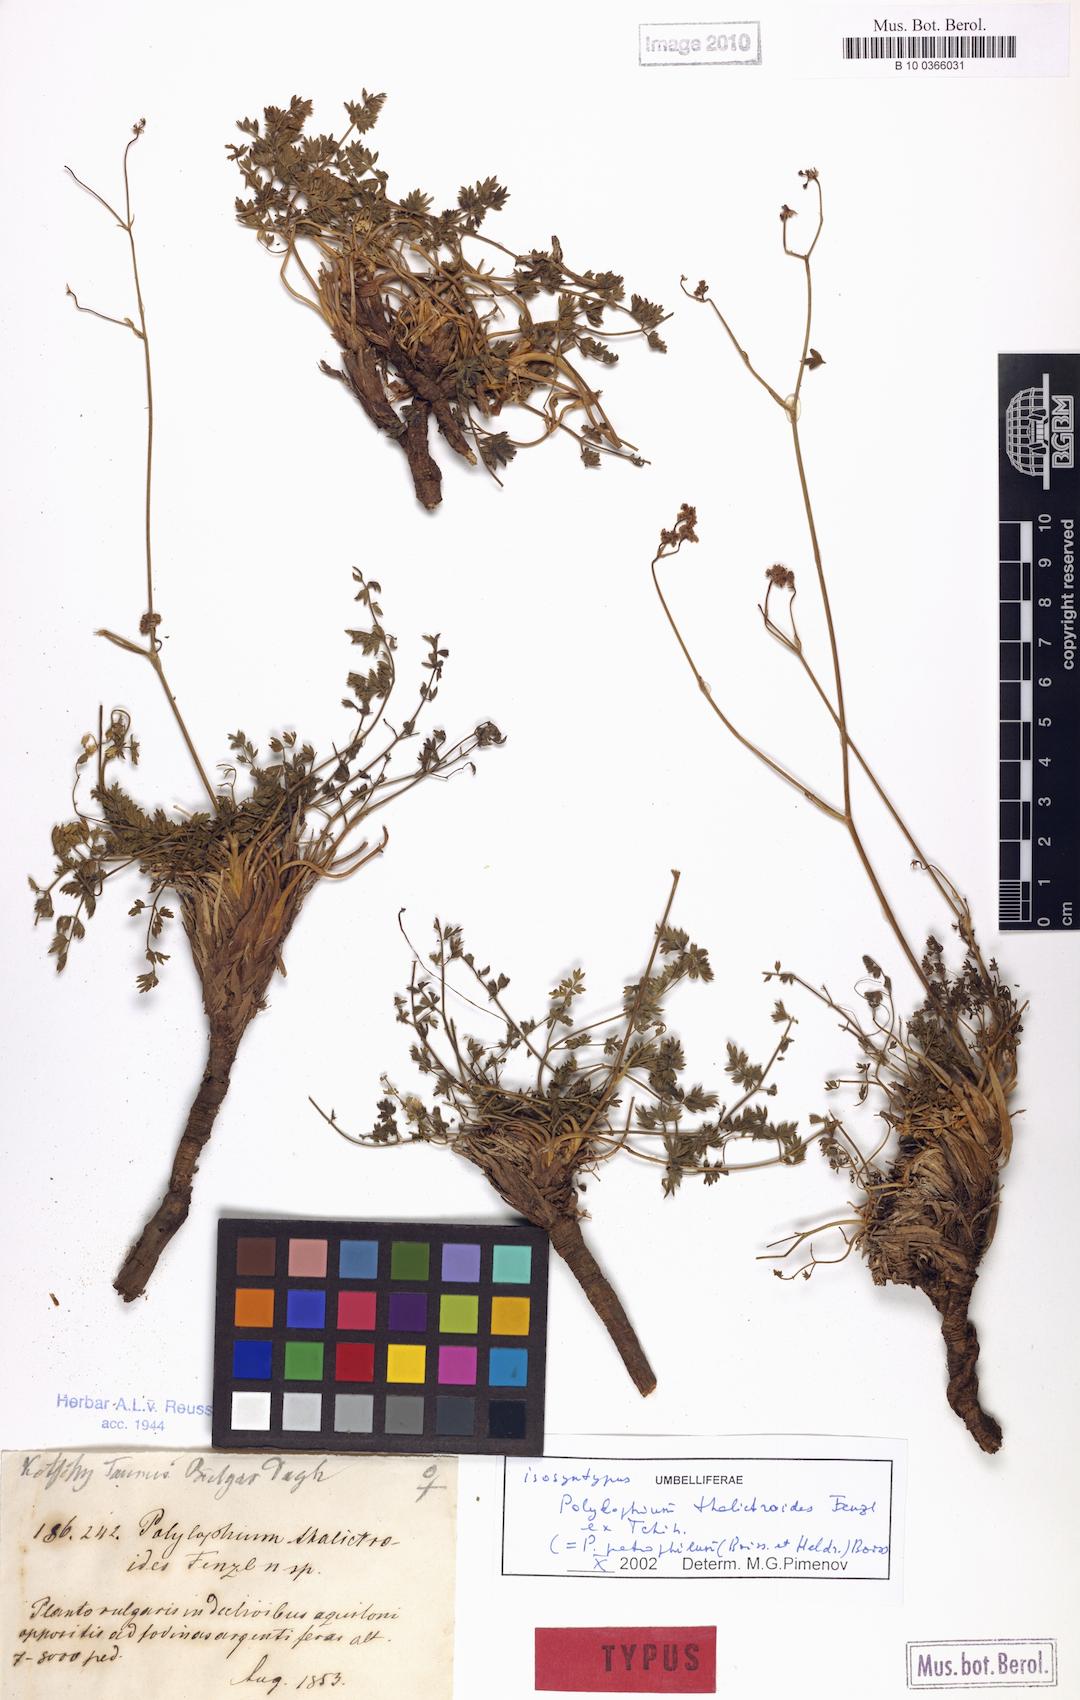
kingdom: Plantae
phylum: Tracheophyta
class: Magnoliopsida
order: Apiales
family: Apiaceae
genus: Ekimia
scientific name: Ekimia petrophila
